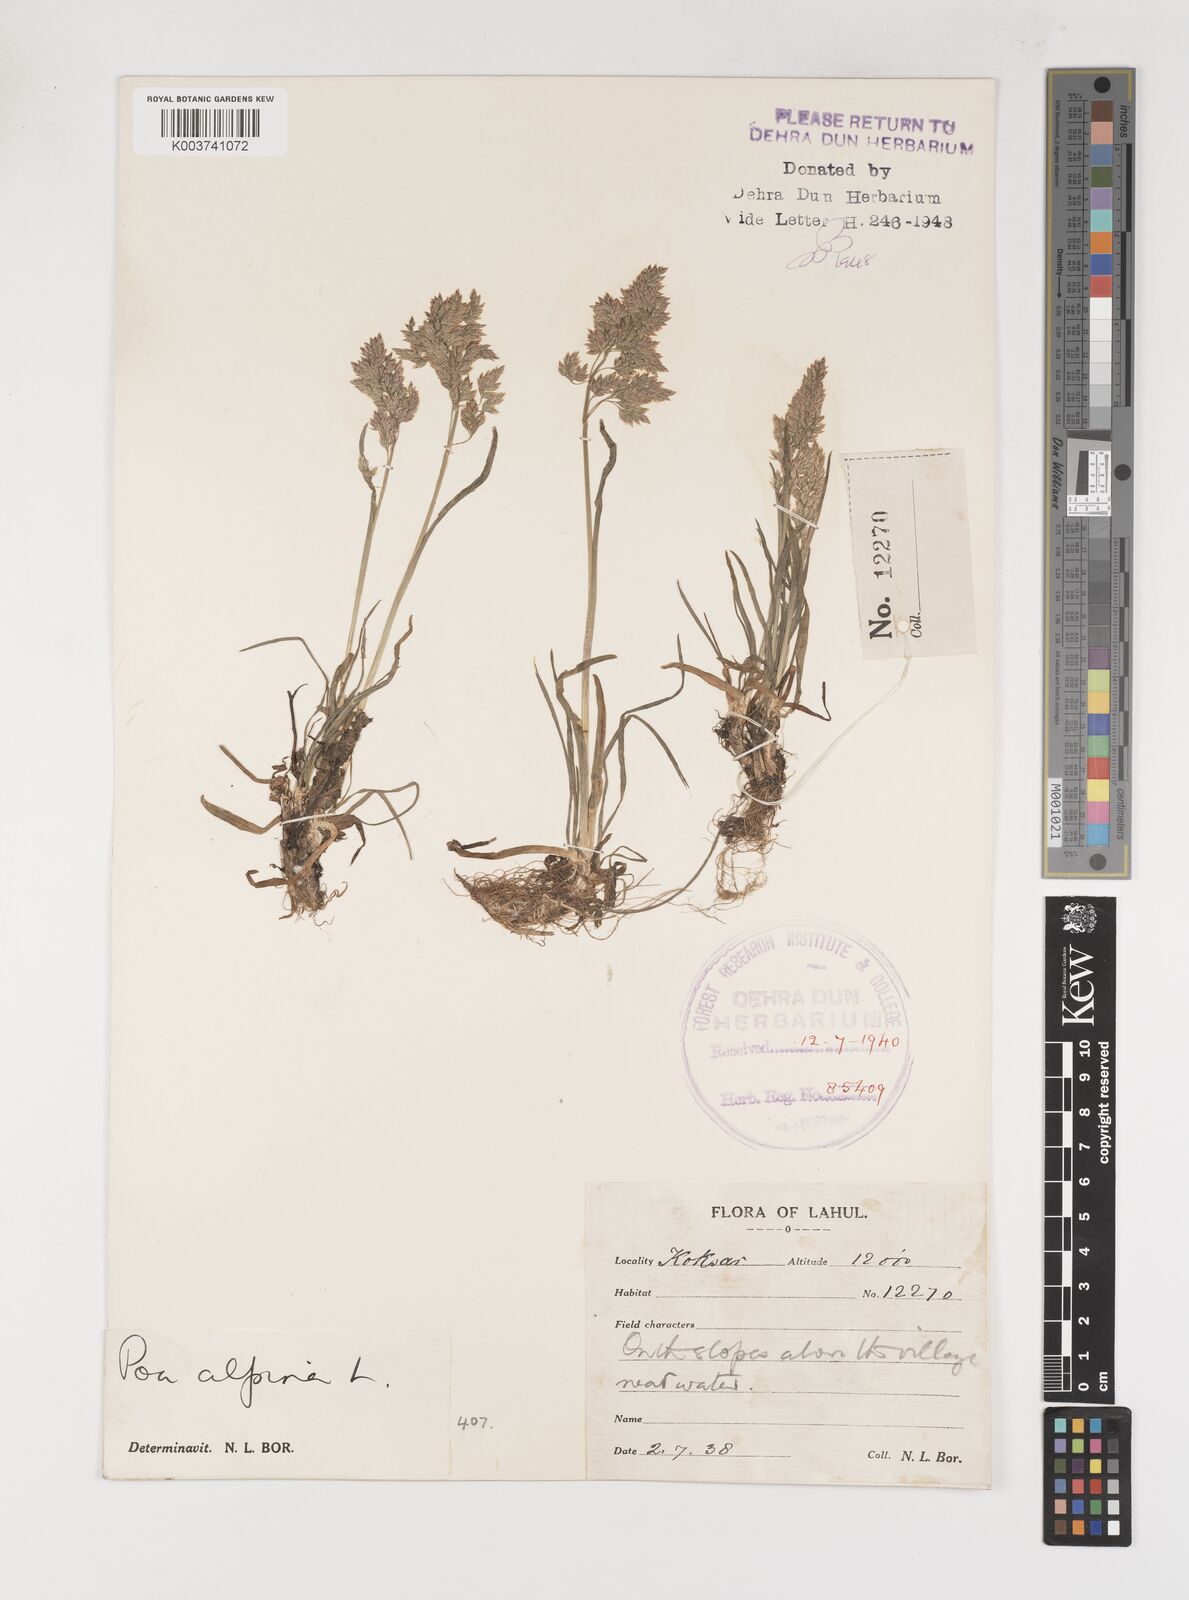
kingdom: Plantae
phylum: Tracheophyta
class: Liliopsida
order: Poales
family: Poaceae
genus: Poa
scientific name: Poa alpina
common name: Alpine bluegrass
